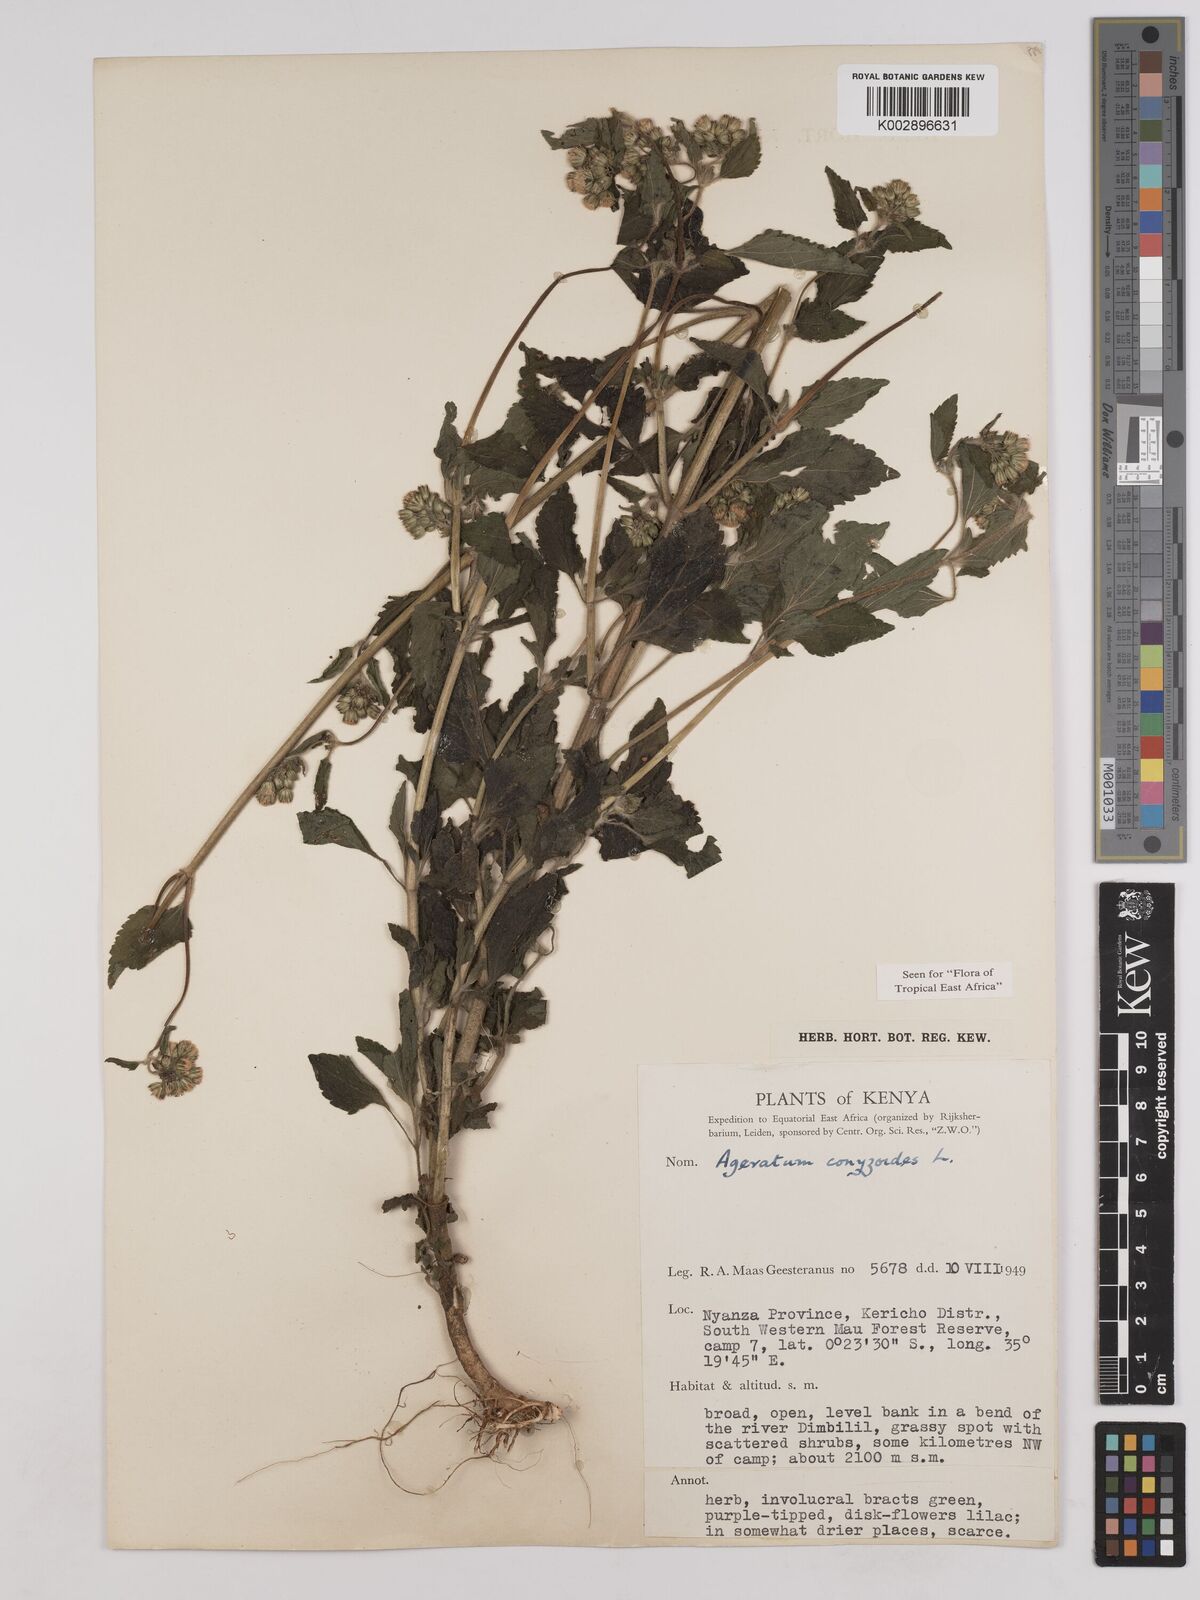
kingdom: Plantae
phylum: Tracheophyta
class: Magnoliopsida
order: Asterales
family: Asteraceae
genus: Ageratum
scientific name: Ageratum conyzoides
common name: Tropical whiteweed
